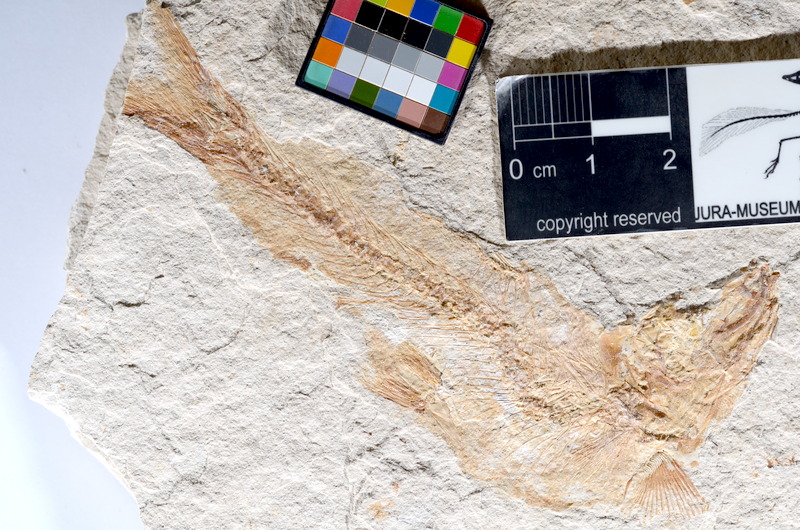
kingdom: Animalia
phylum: Chordata
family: Ascalaboidae
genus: Tharsis
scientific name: Tharsis dubius
